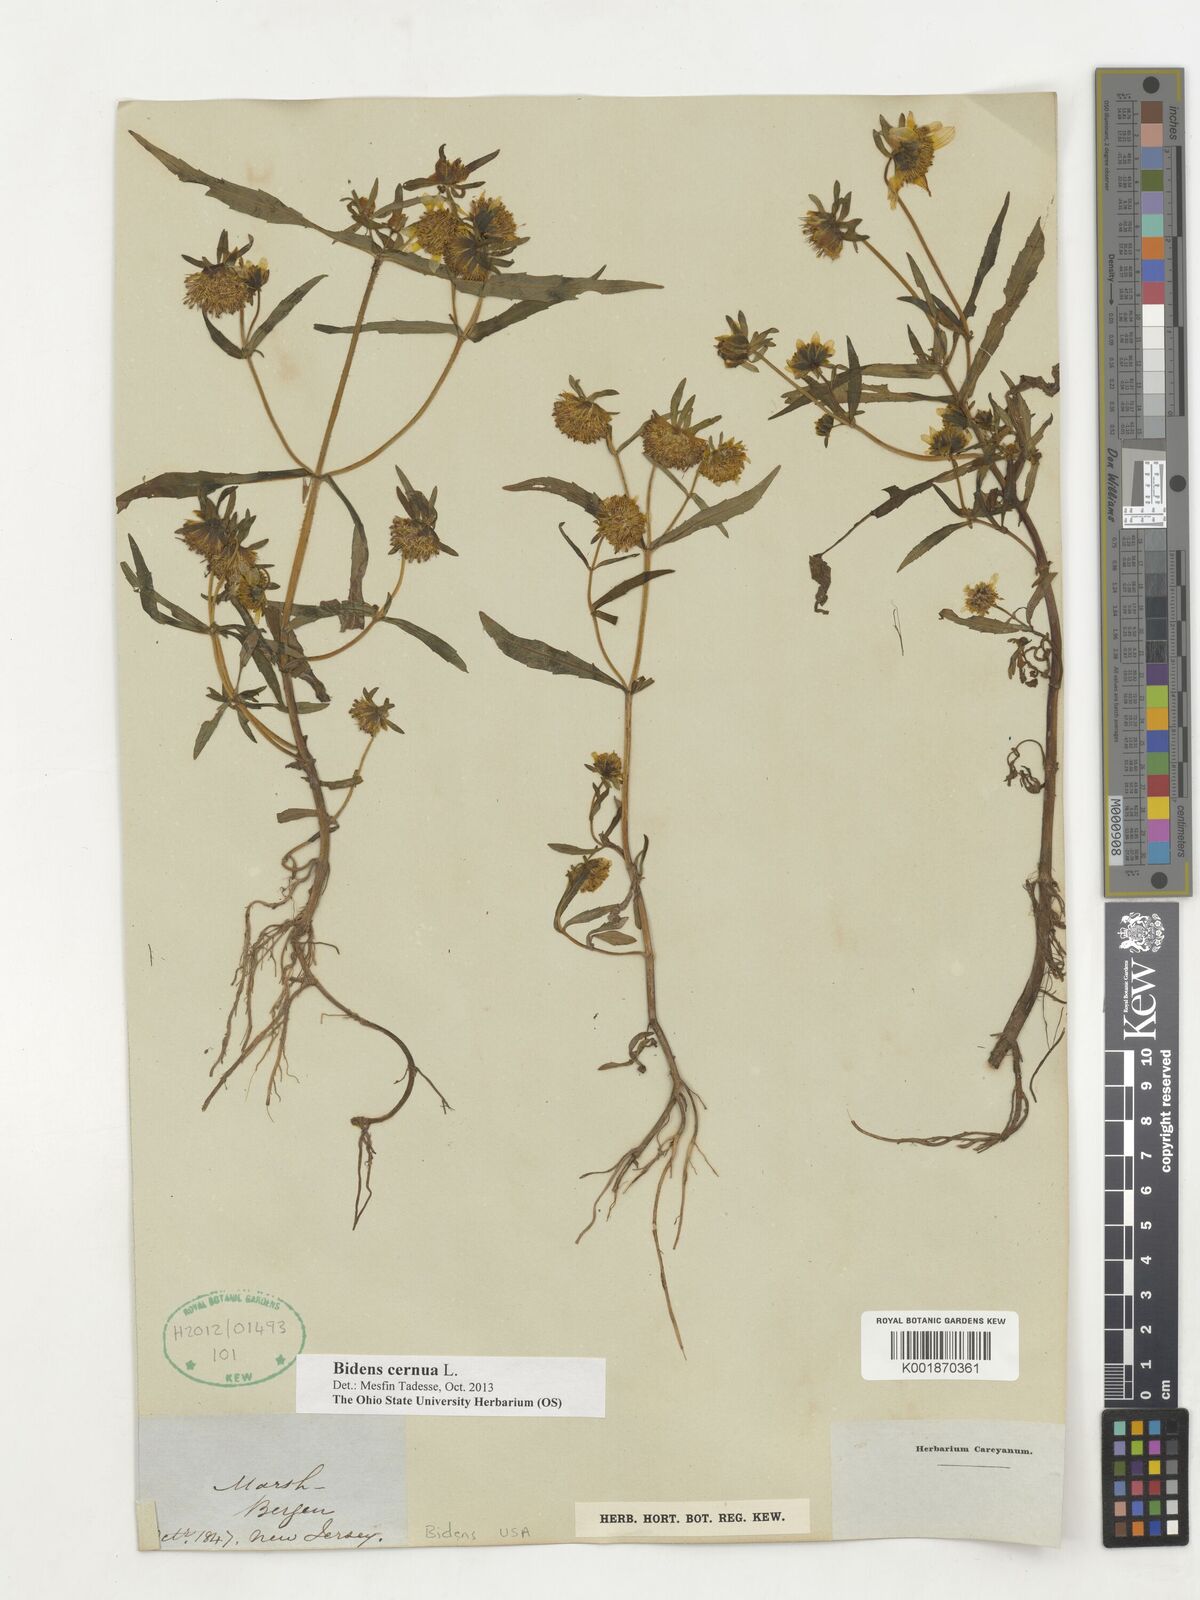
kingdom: Plantae
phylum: Tracheophyta
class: Magnoliopsida
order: Asterales
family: Asteraceae
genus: Bidens
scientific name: Bidens cernua
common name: Nodding bur-marigold
